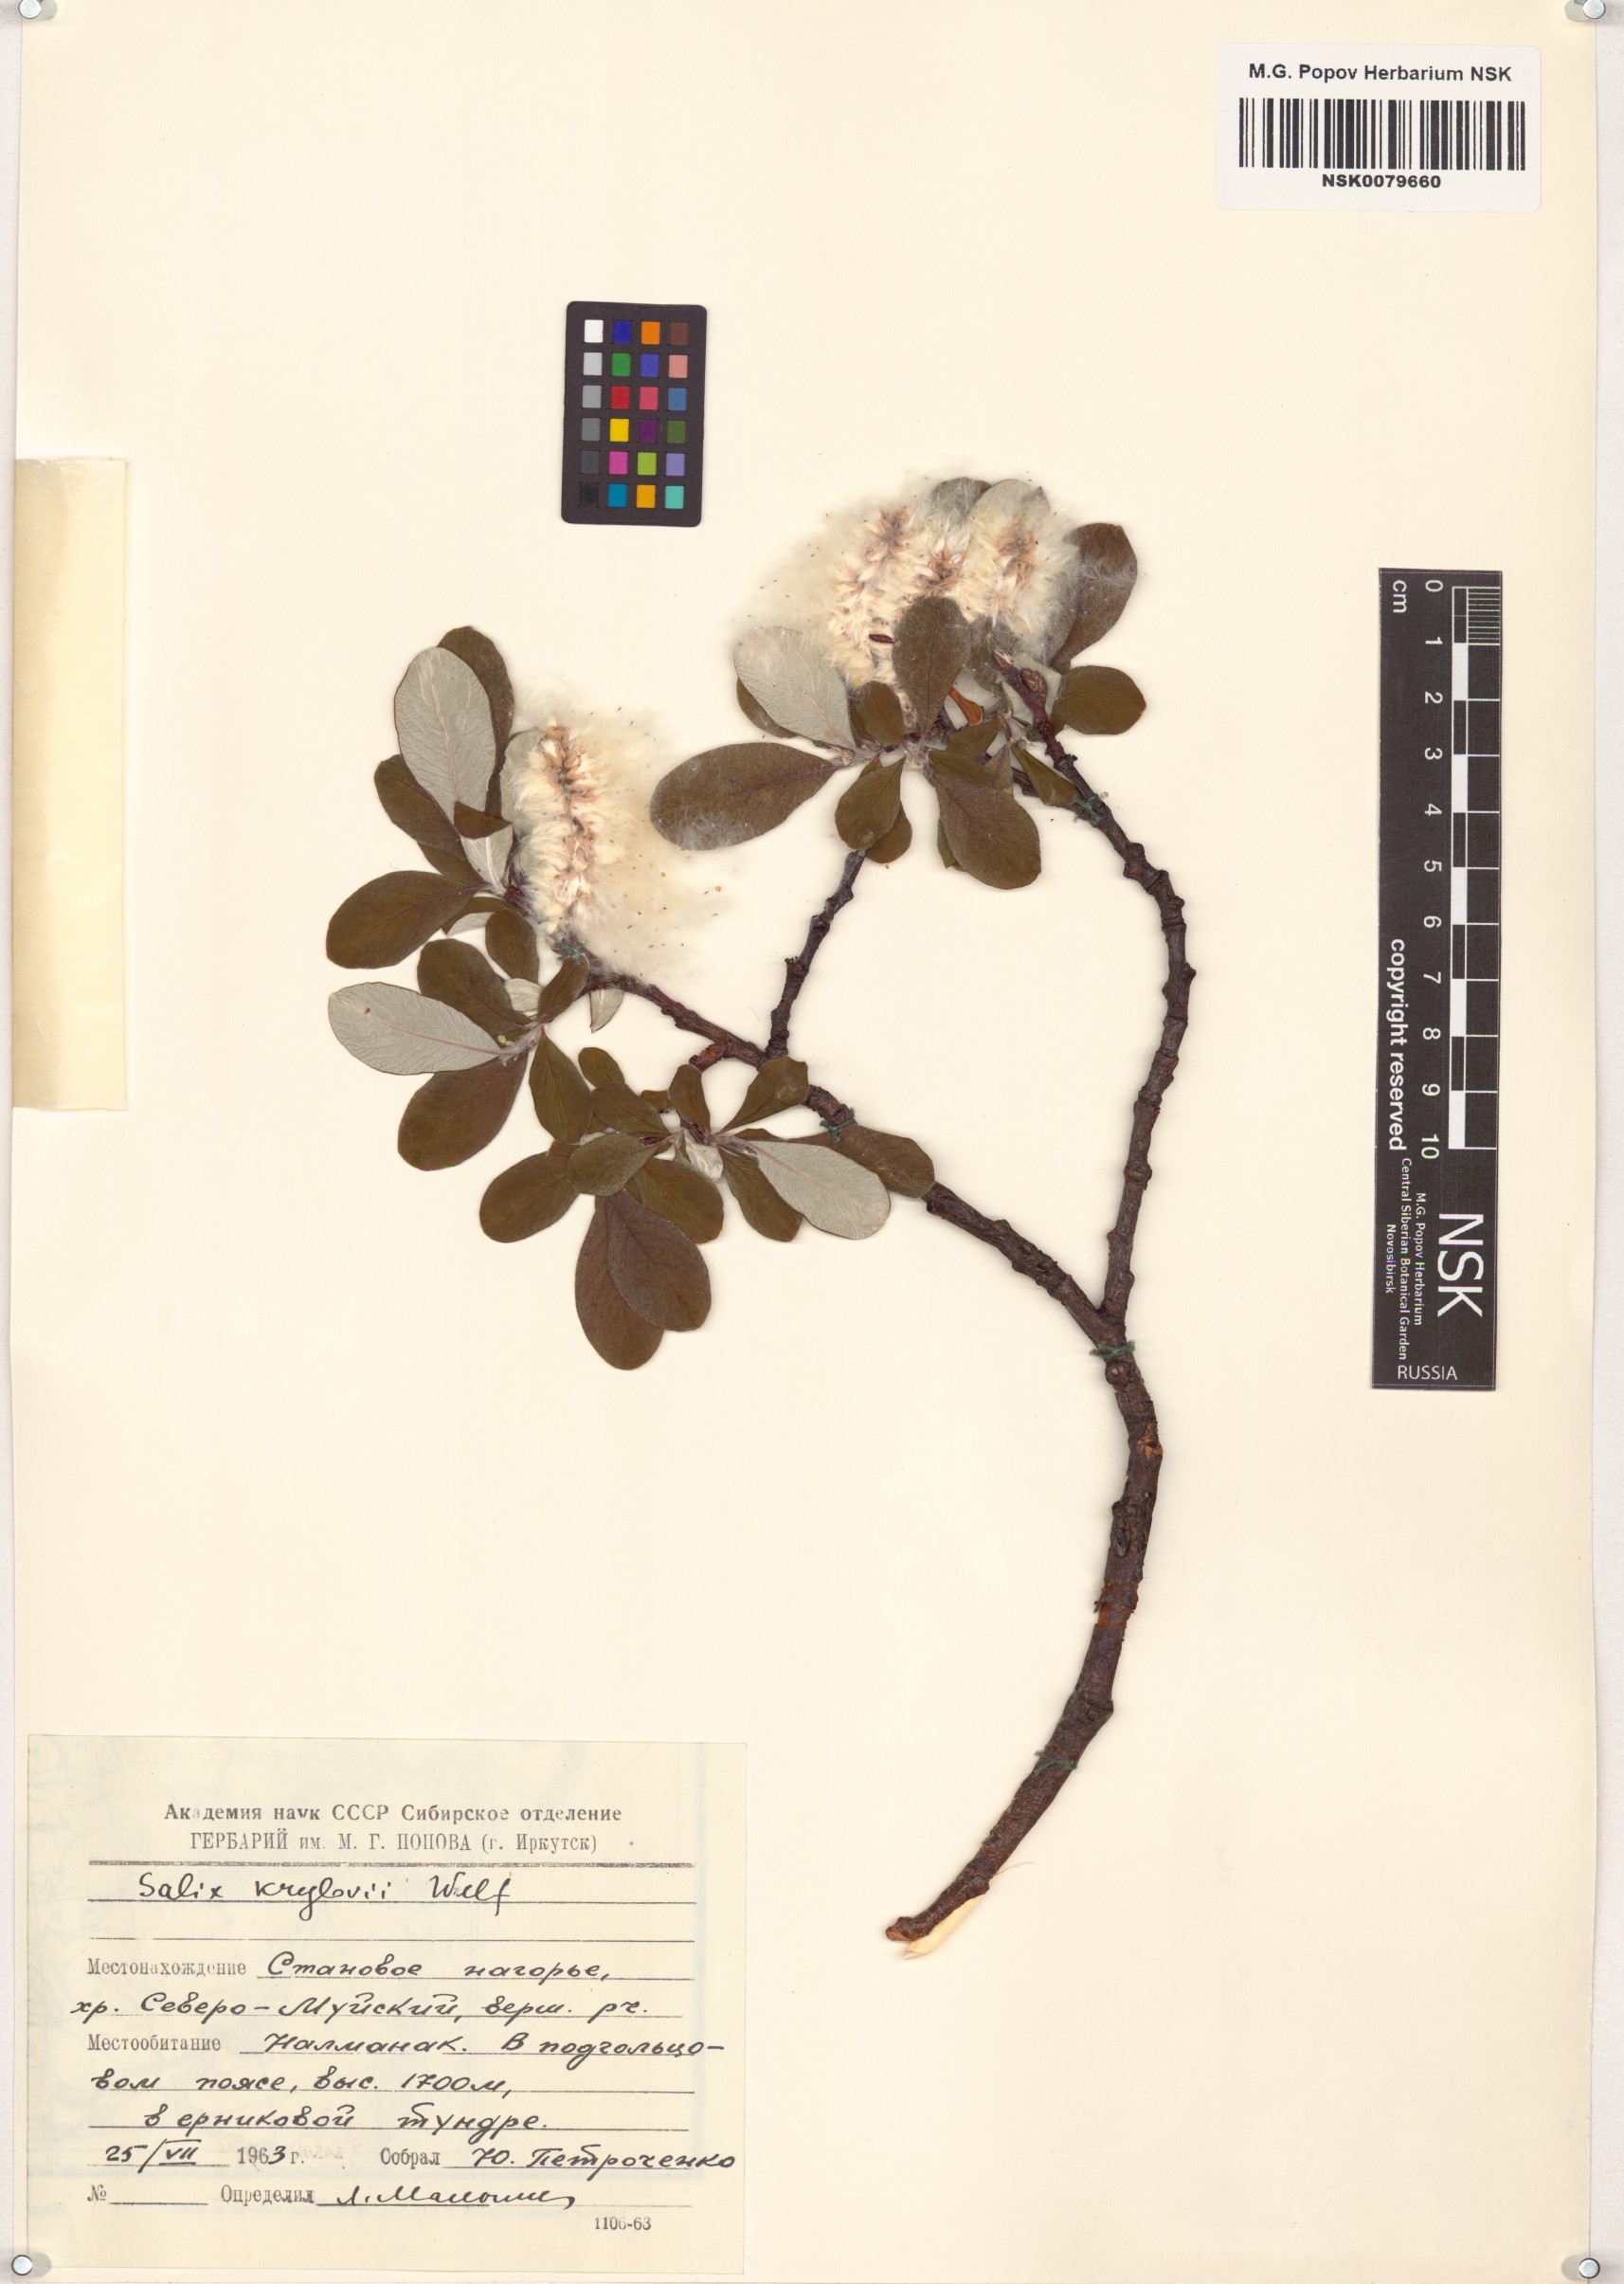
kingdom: Plantae
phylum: Tracheophyta
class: Magnoliopsida
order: Malpighiales
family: Salicaceae
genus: Salix
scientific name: Salix krylovii
